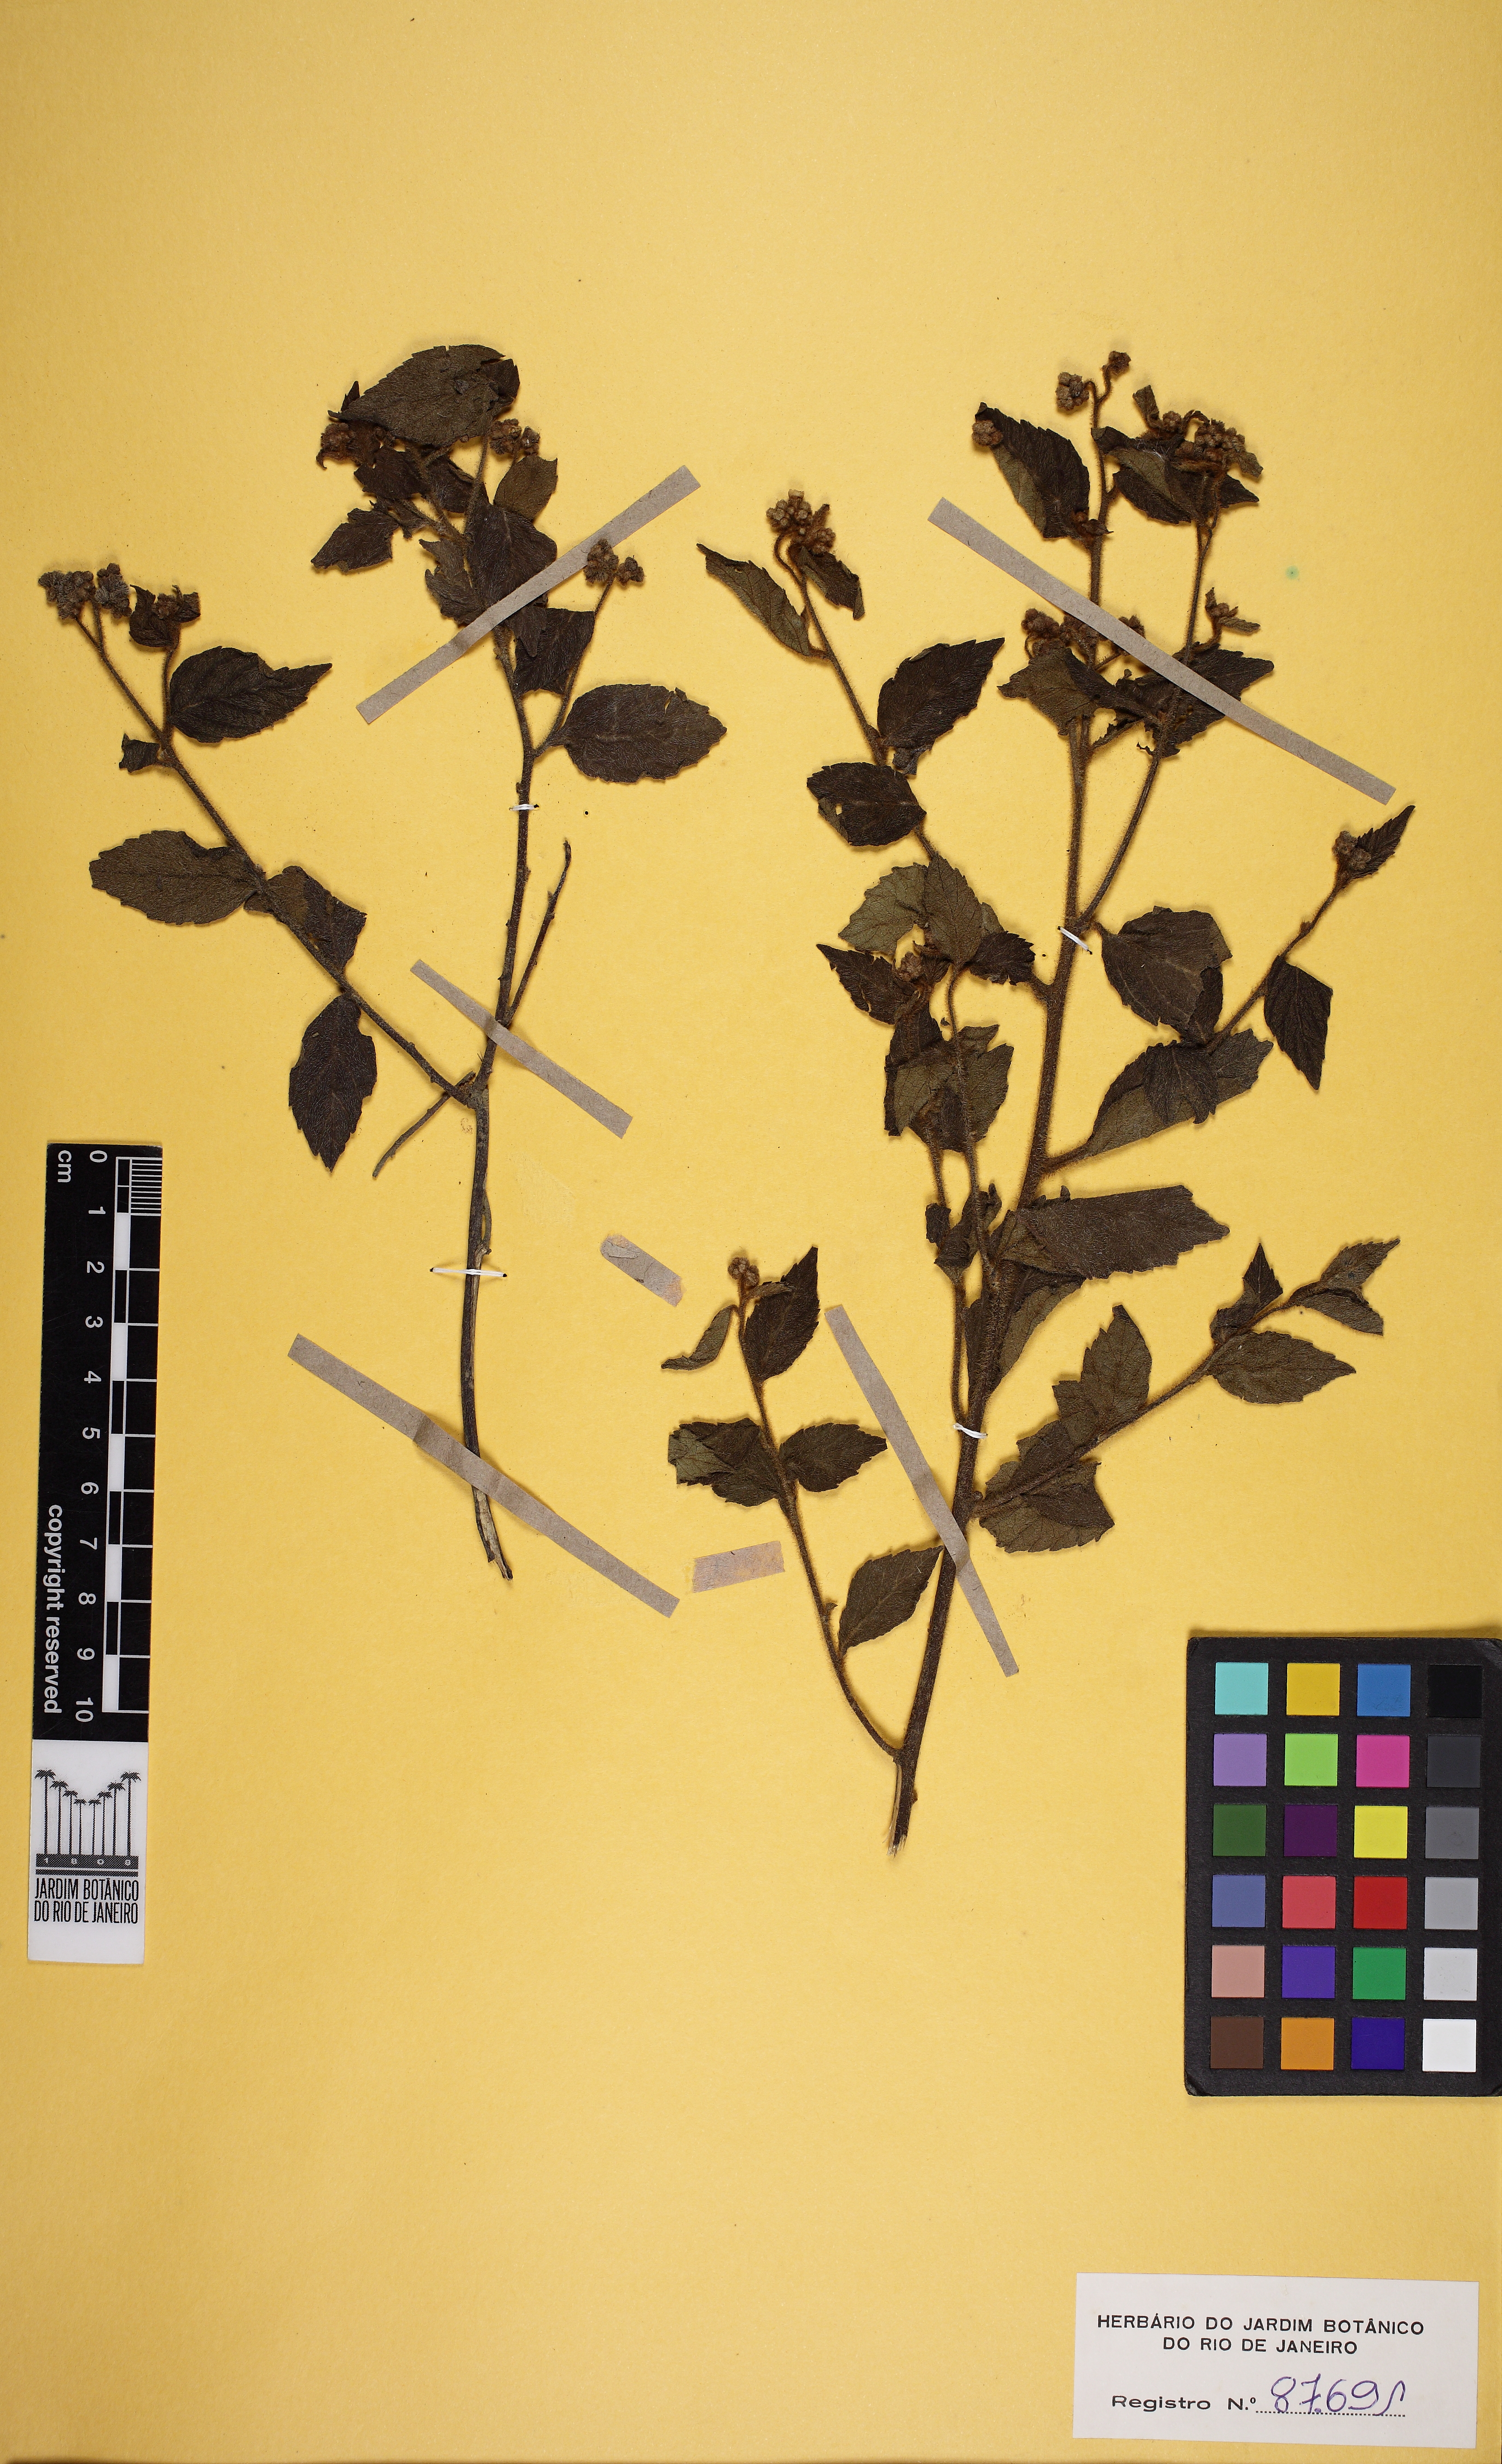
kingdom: Plantae
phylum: Tracheophyta
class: Magnoliopsida
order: Boraginales
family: Cordiaceae
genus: Varronia
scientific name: Varronia polycephala
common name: Black-sage
